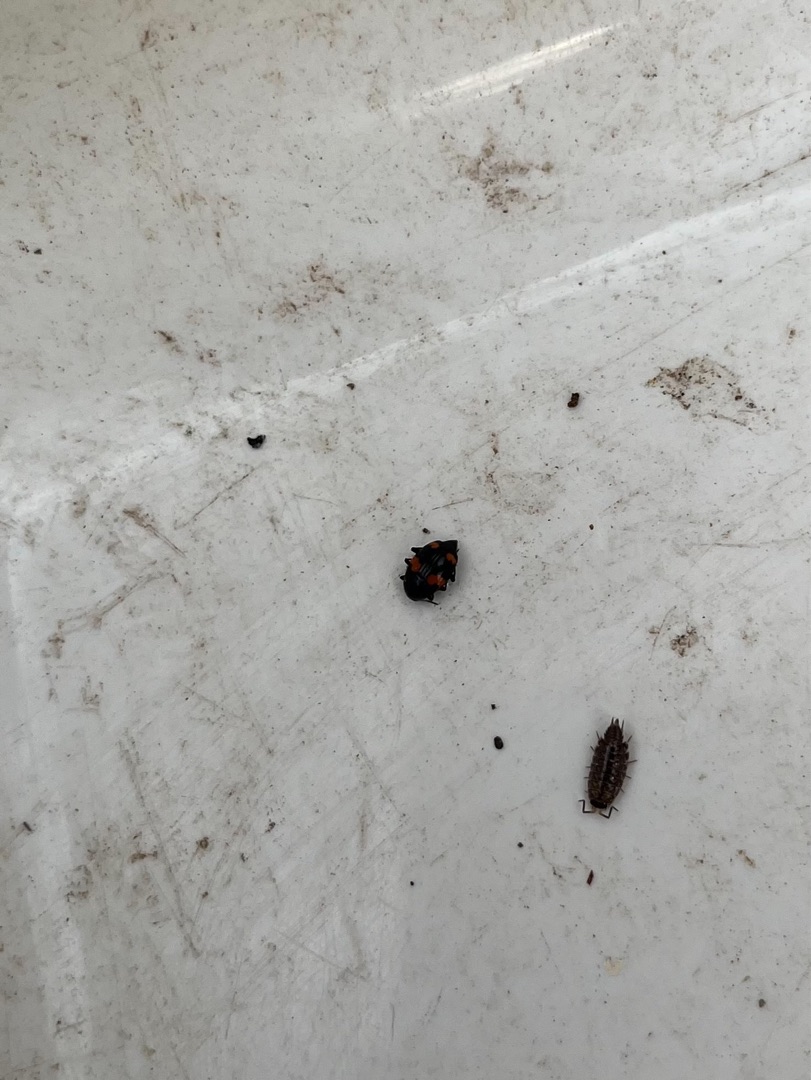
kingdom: Animalia
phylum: Arthropoda
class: Insecta
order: Coleoptera
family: Staphylinidae
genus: Scaphidium
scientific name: Scaphidium quadrimaculatum
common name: Dråberovbille
